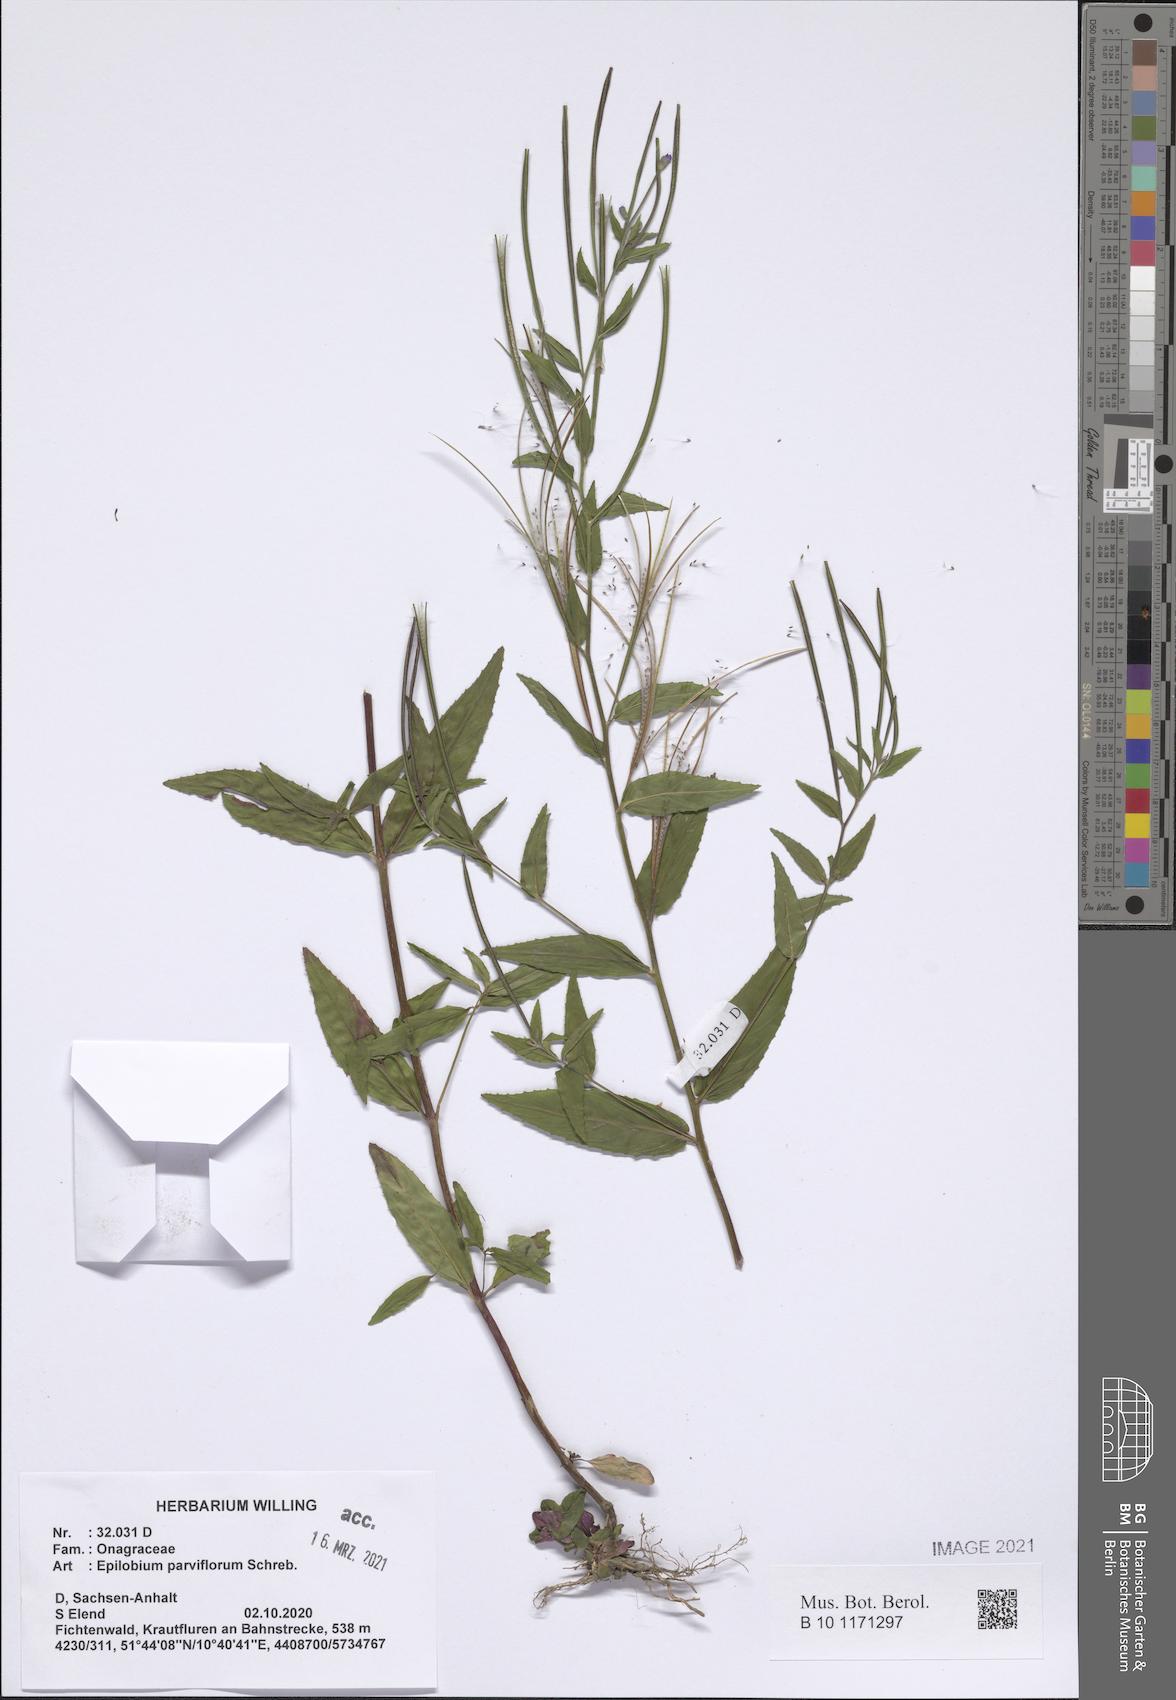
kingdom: Plantae
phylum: Tracheophyta
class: Magnoliopsida
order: Myrtales
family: Onagraceae
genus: Epilobium
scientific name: Epilobium parviflorum
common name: Hoary willowherb
